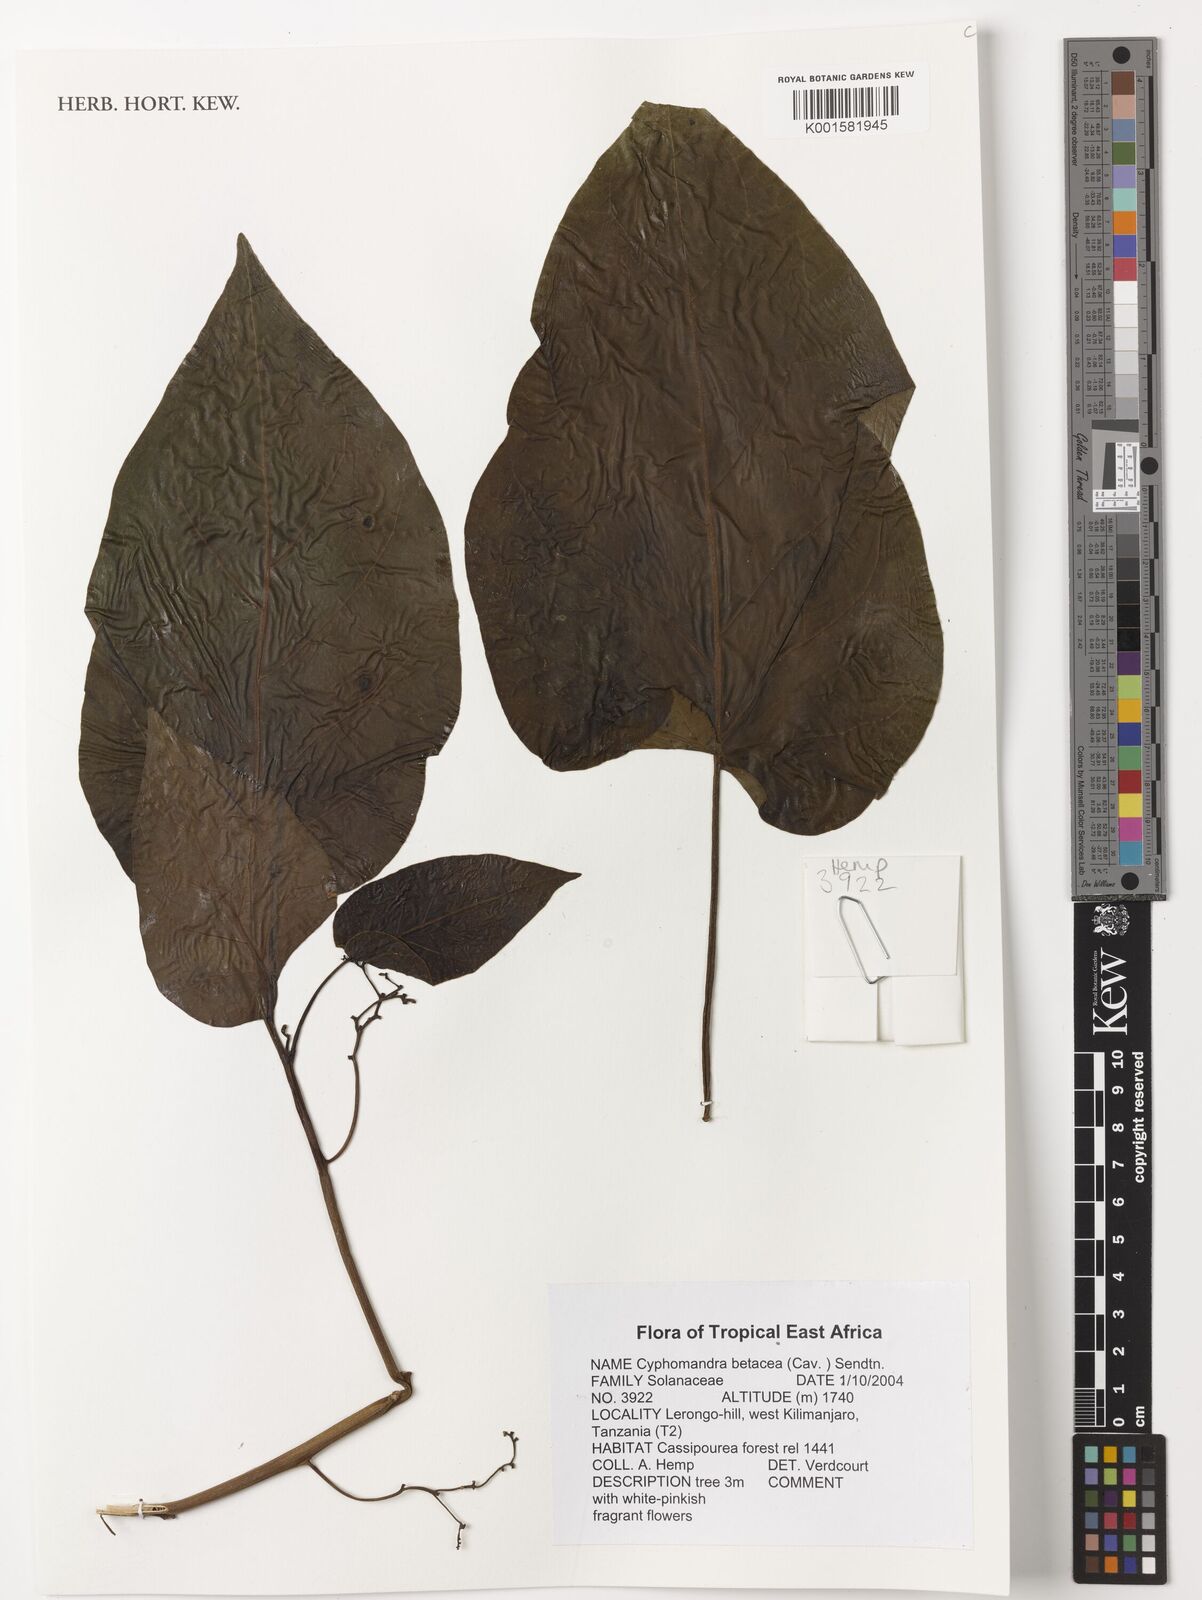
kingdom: Plantae
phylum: Tracheophyta
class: Magnoliopsida
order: Solanales
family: Solanaceae
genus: Solanum
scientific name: Solanum betaceum
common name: Tamarillo
